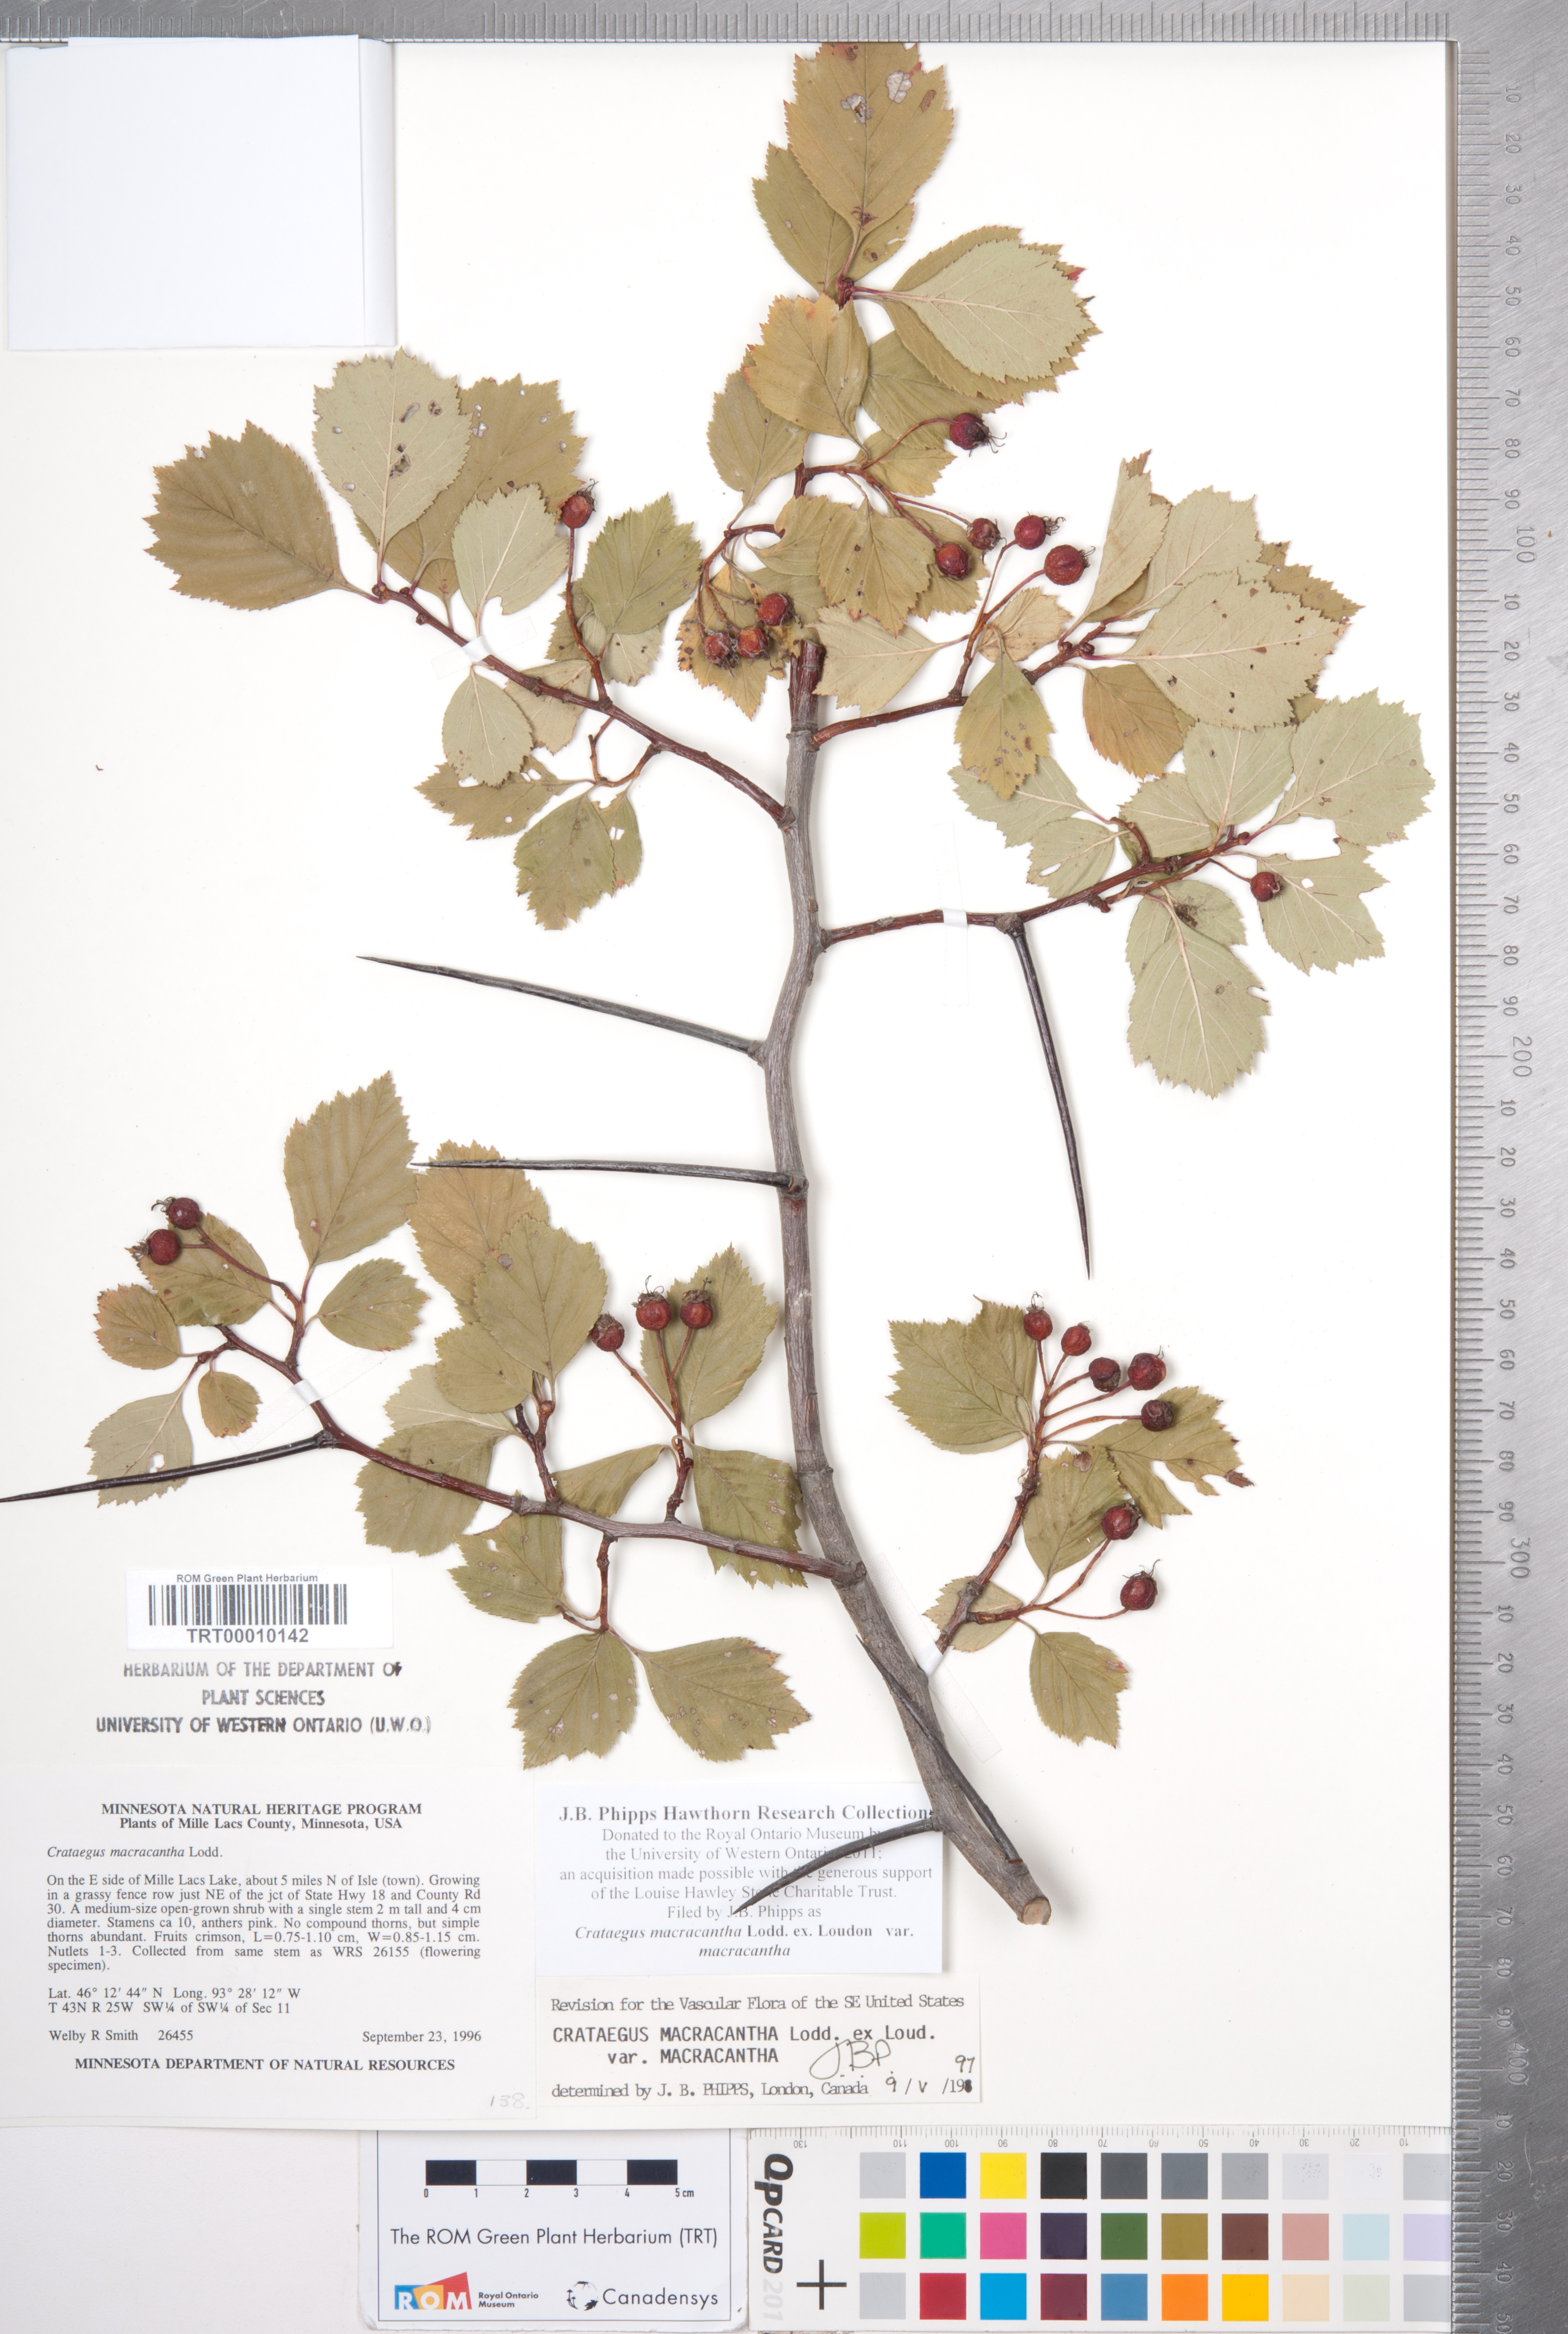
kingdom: Plantae
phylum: Tracheophyta
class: Magnoliopsida
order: Rosales
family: Rosaceae
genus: Crataegus
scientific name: Crataegus macracantha
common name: Large-thorn hawthorn
